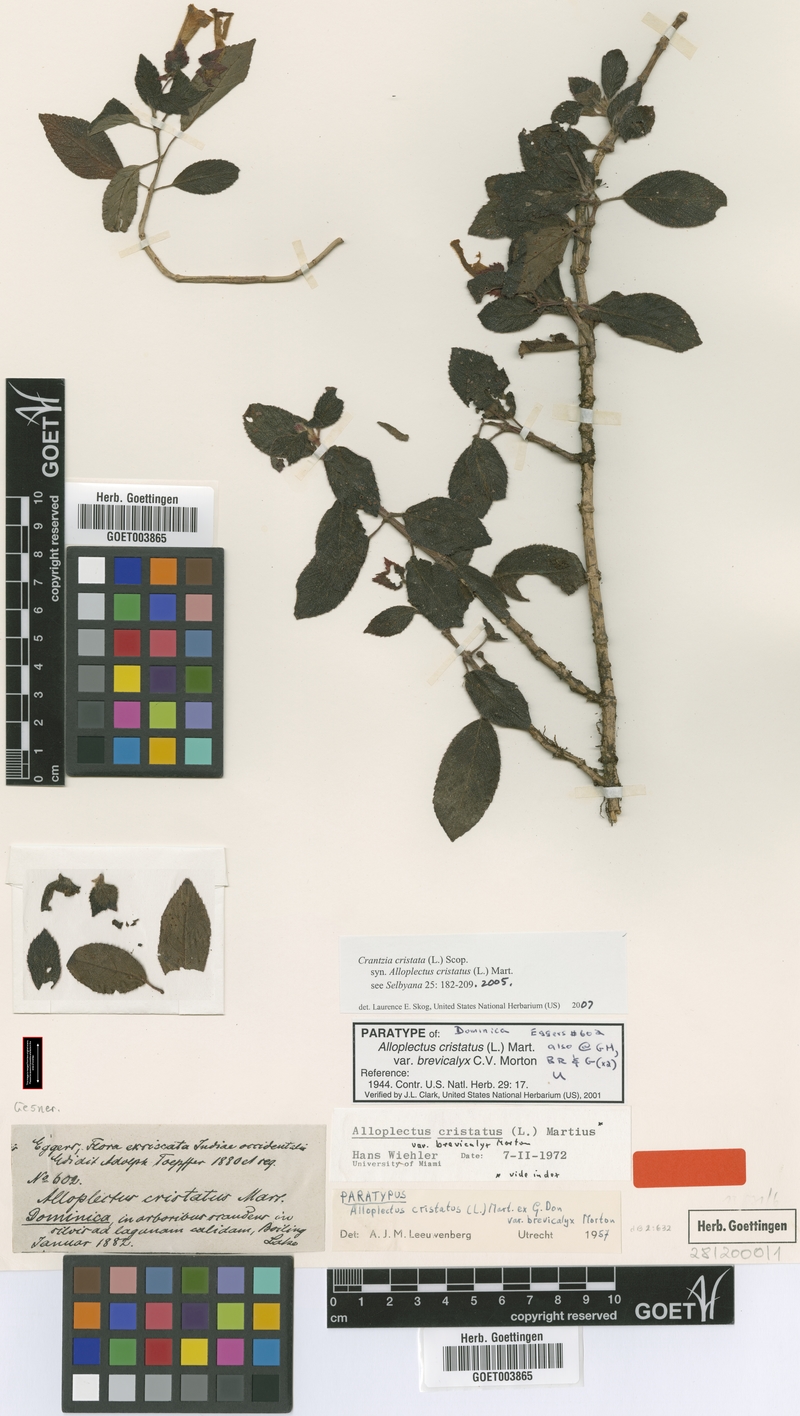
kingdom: Plantae
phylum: Tracheophyta
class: Magnoliopsida
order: Lamiales
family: Gesneriaceae
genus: Crantzia
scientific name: Crantzia cristata
